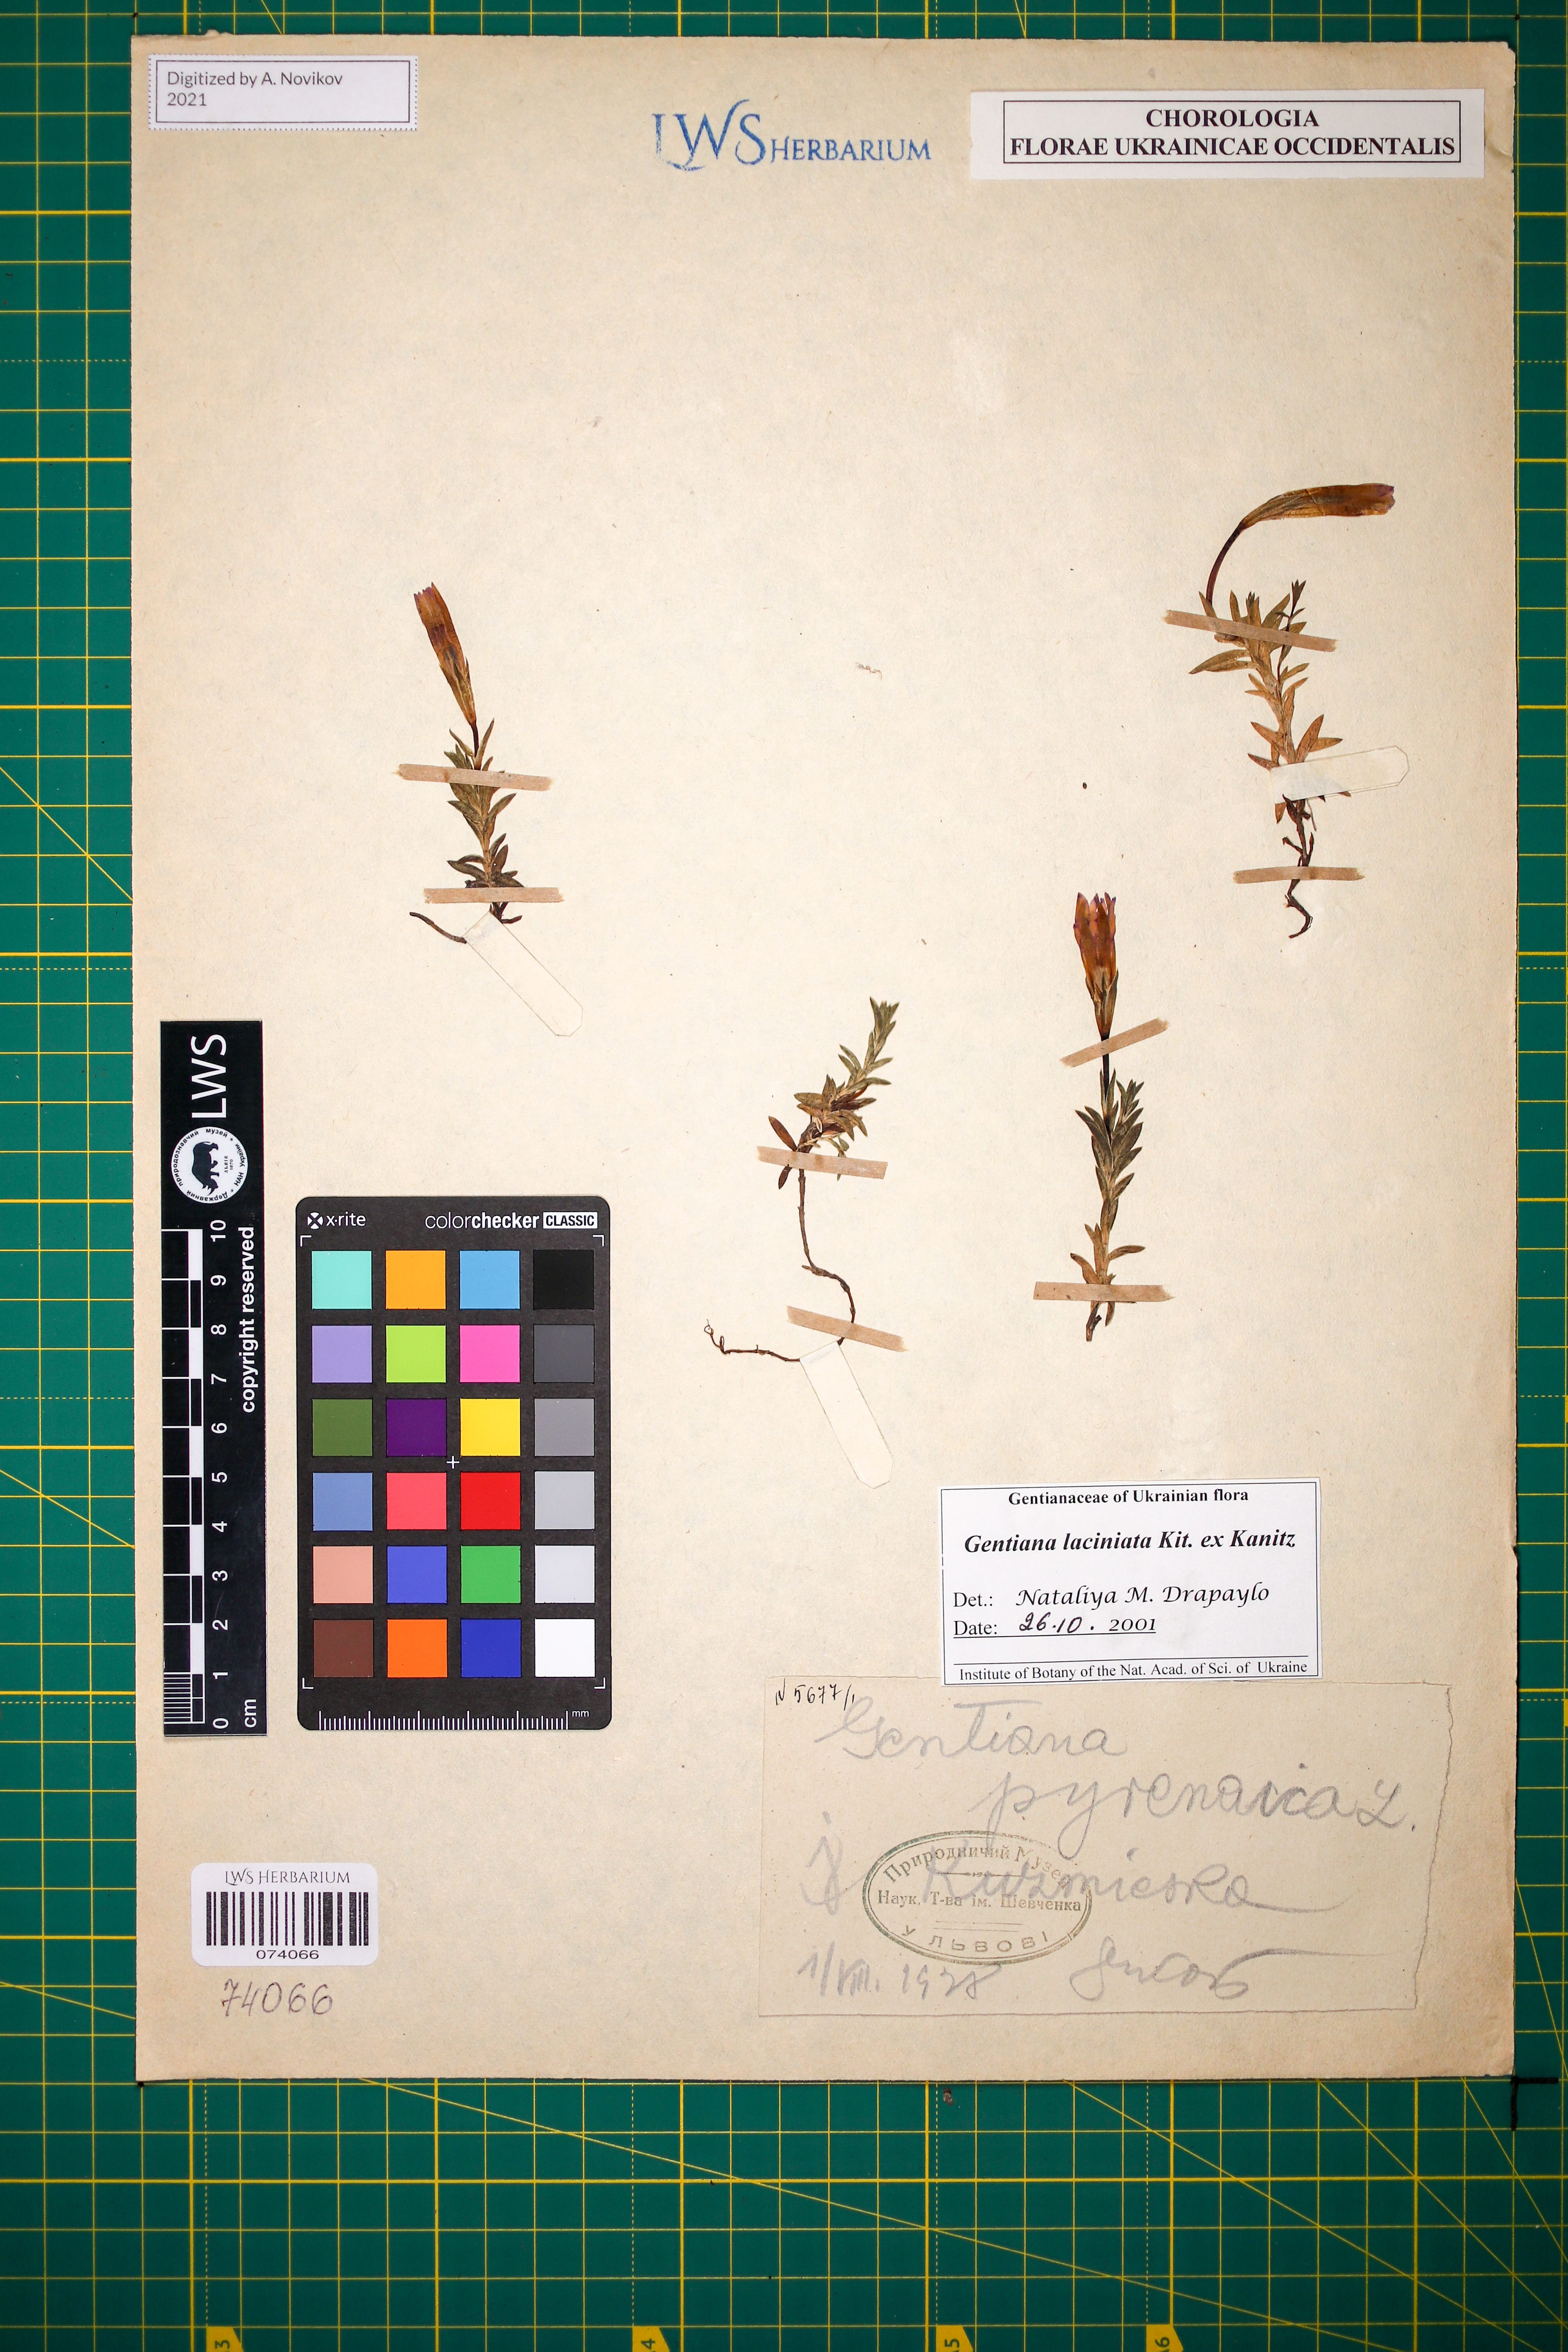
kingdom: Plantae
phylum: Tracheophyta
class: Magnoliopsida
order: Gentianales
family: Gentianaceae
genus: Gentiana
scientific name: Gentiana laciniata
